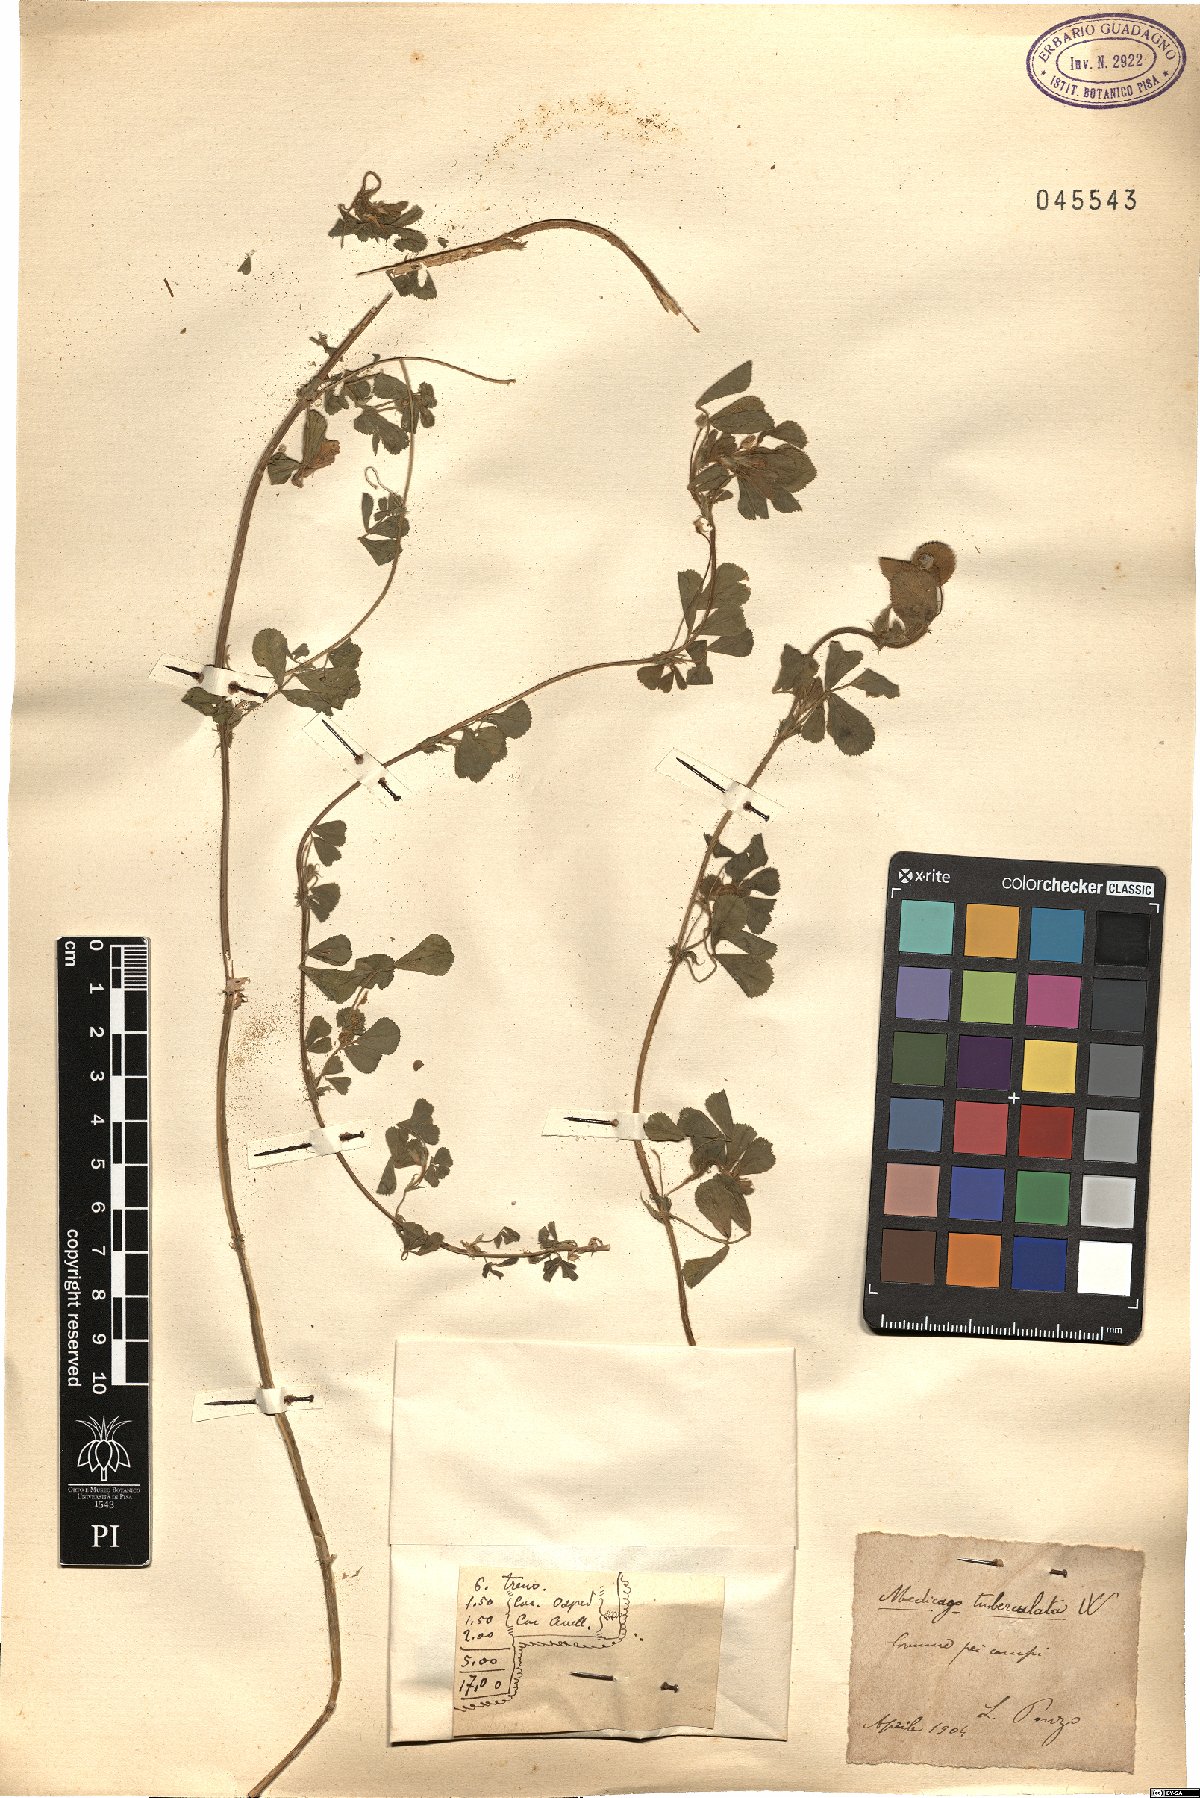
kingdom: Plantae
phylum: Tracheophyta
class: Magnoliopsida
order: Fabales
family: Fabaceae
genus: Medicago
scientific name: Medicago turbinata
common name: Southern medick
